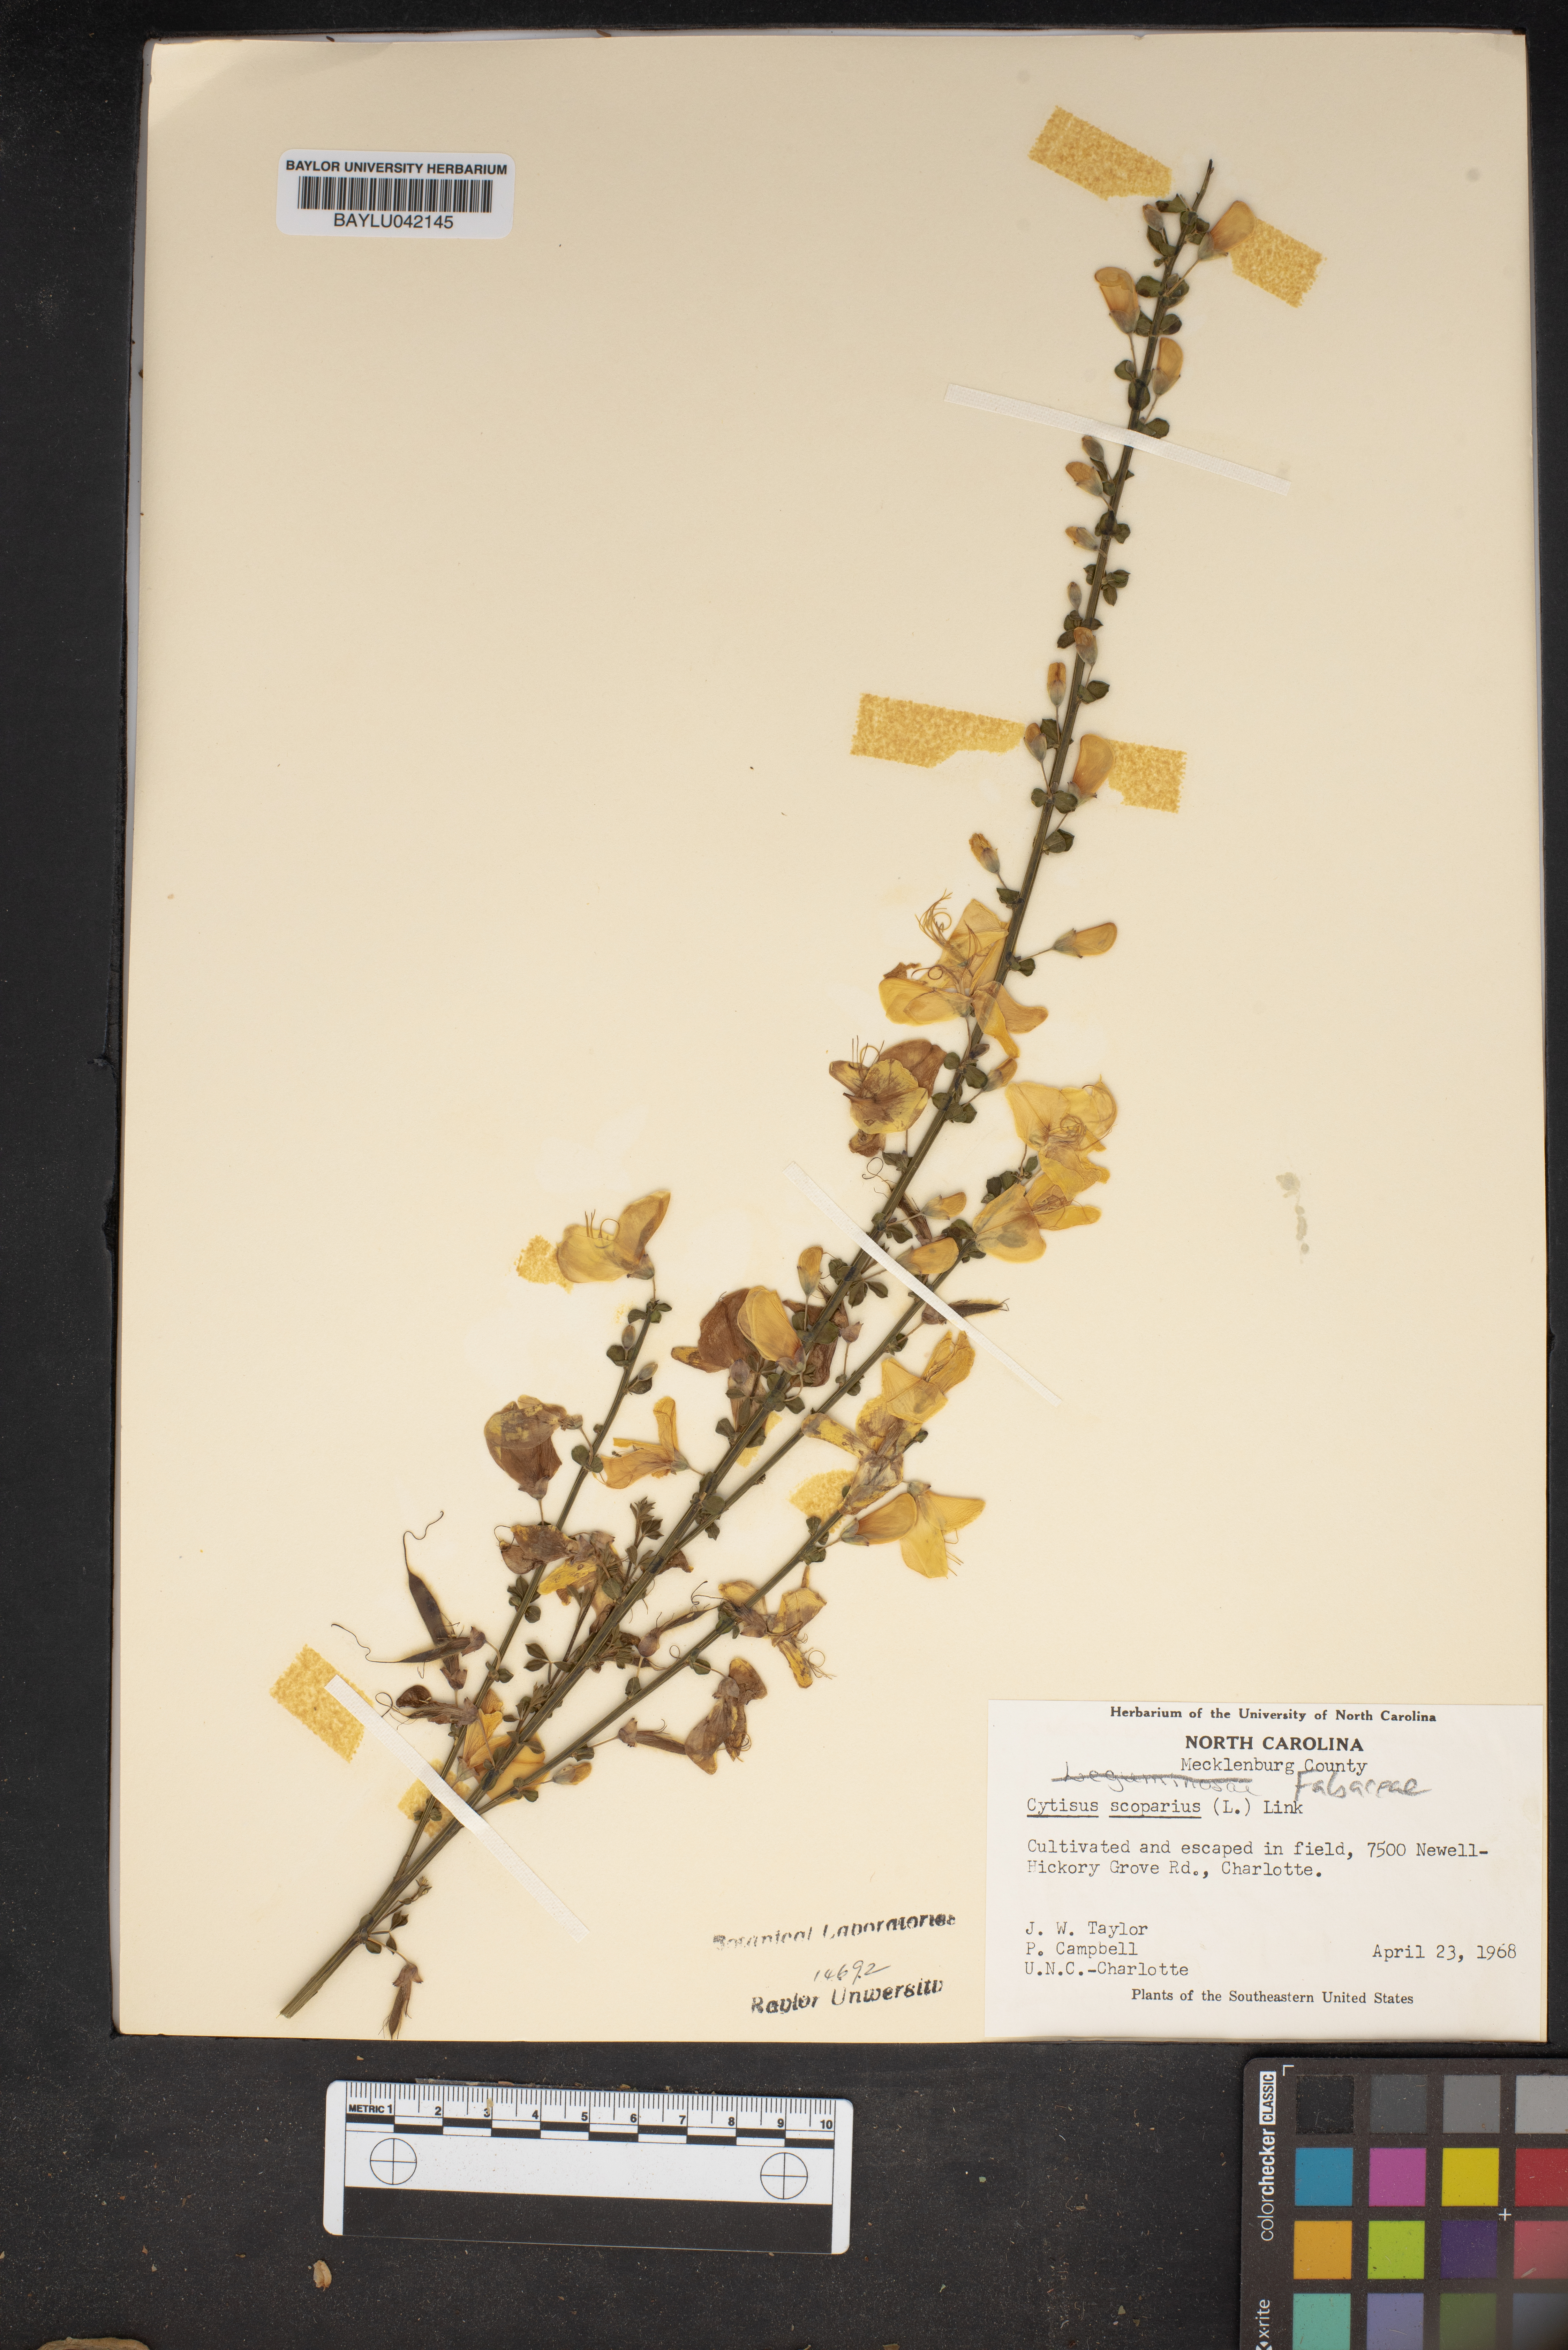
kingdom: Plantae
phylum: Tracheophyta
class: Magnoliopsida
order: Fabales
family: Fabaceae
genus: Cytisus
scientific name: Cytisus scoparius
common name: Scotch broom
